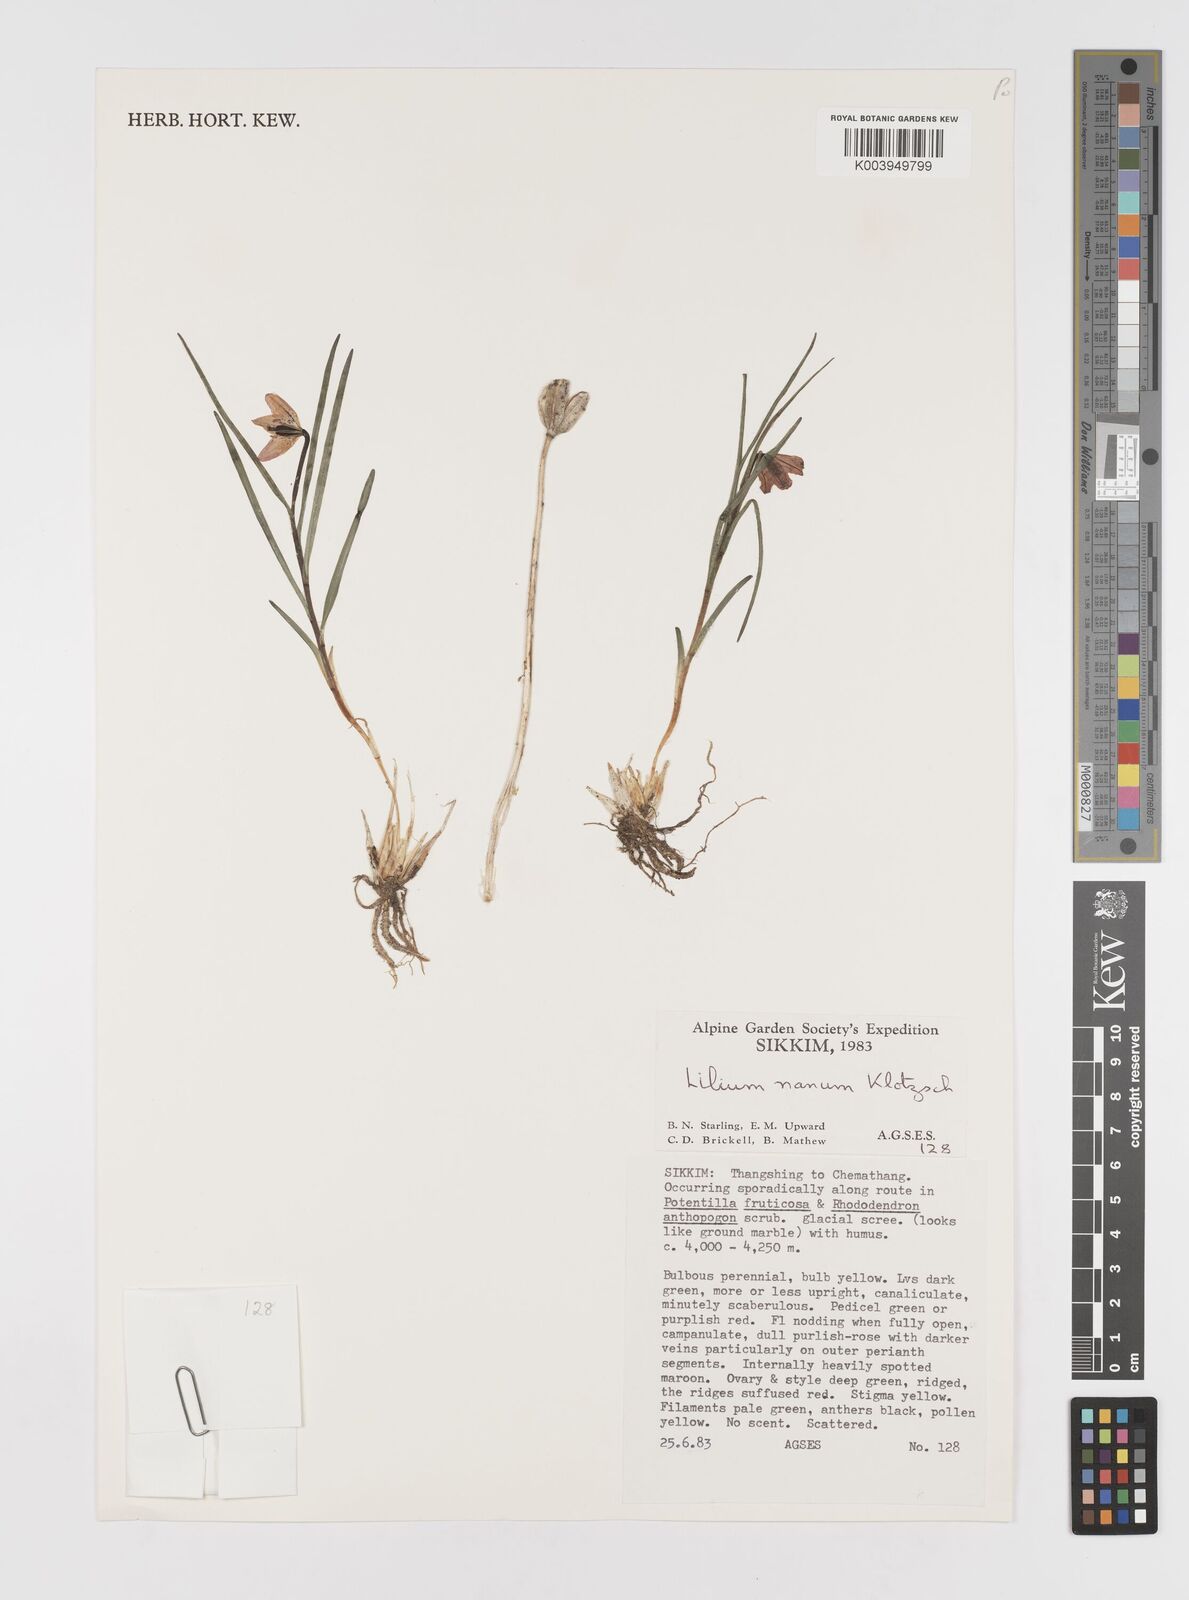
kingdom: Plantae
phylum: Tracheophyta
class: Liliopsida
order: Liliales
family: Liliaceae
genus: Lilium
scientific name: Lilium nanum
